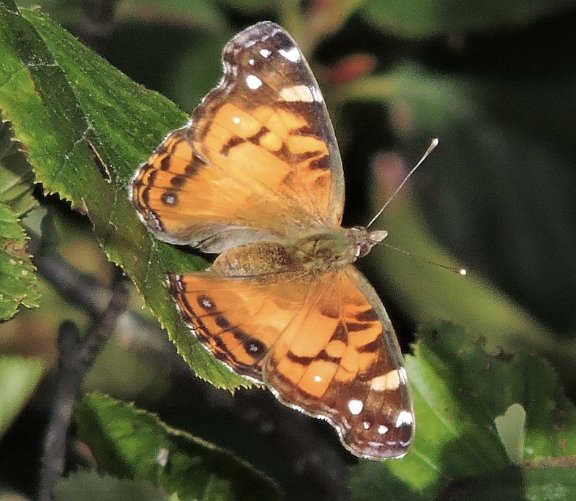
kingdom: Animalia
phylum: Arthropoda
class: Insecta
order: Lepidoptera
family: Nymphalidae
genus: Vanessa
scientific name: Vanessa virginiensis
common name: American Lady
